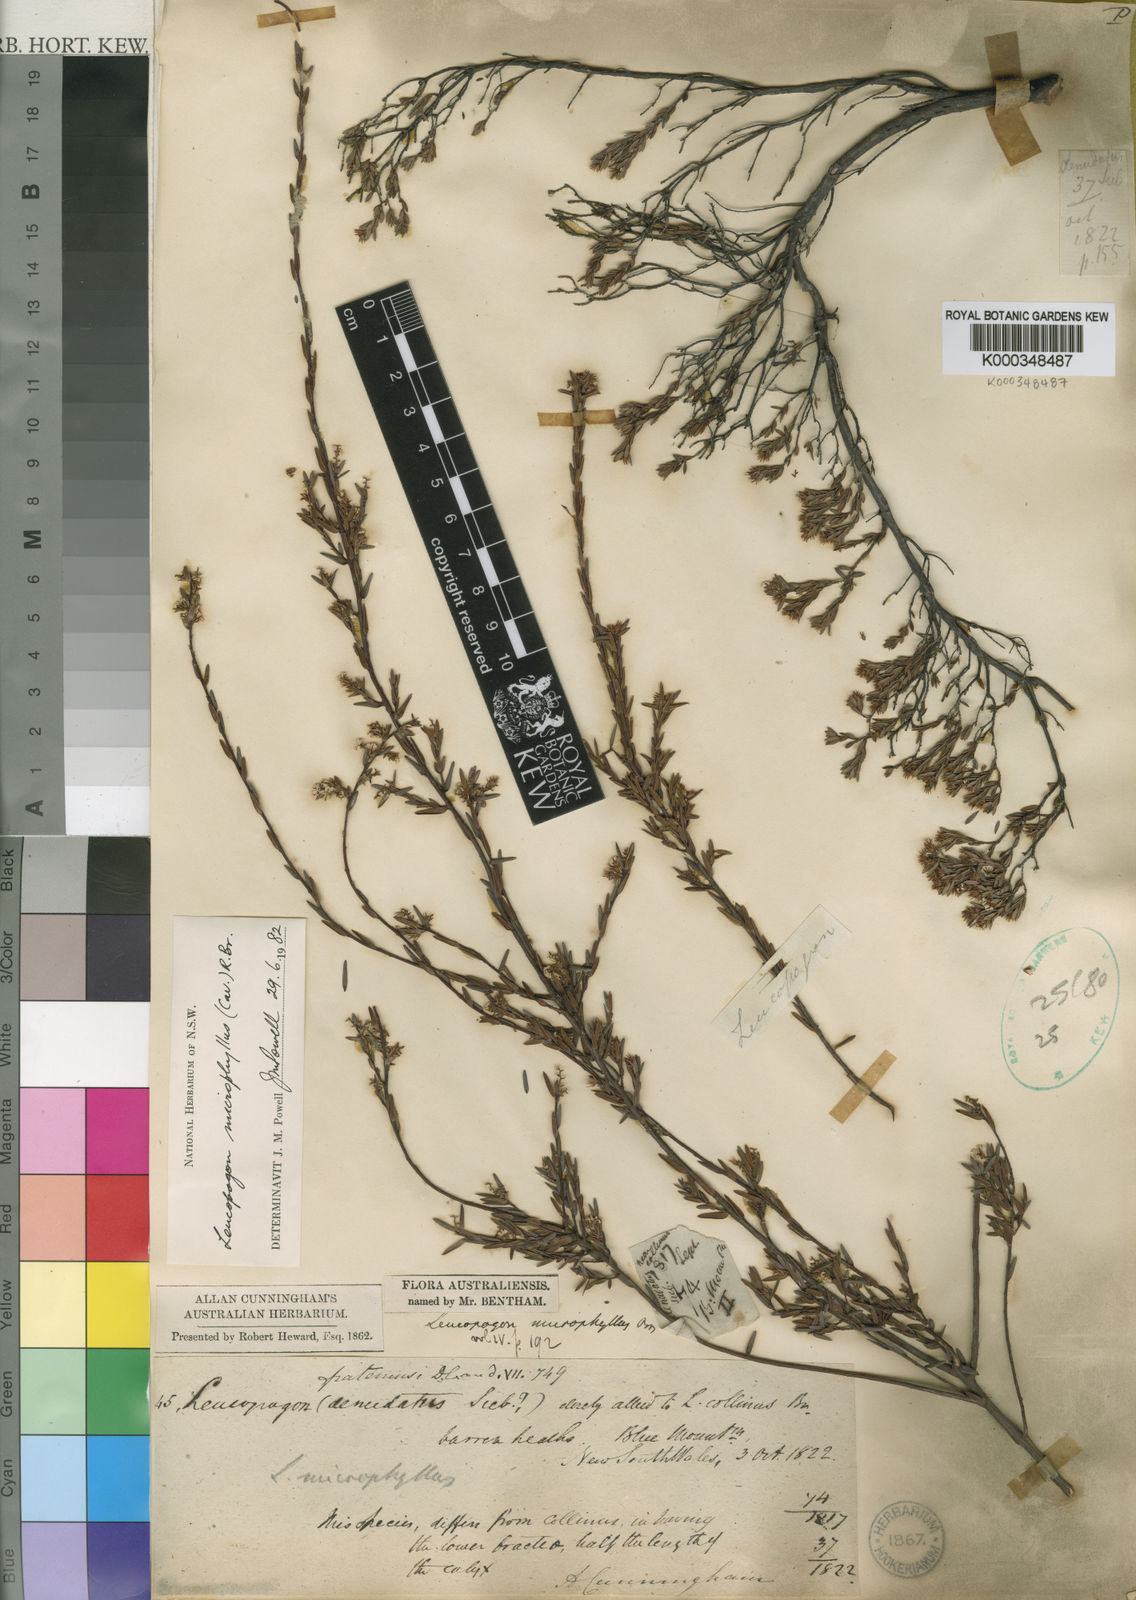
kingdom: Plantae
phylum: Tracheophyta
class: Magnoliopsida
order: Ericales
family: Ericaceae
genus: Leucopogon
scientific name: Leucopogon microphyllus
